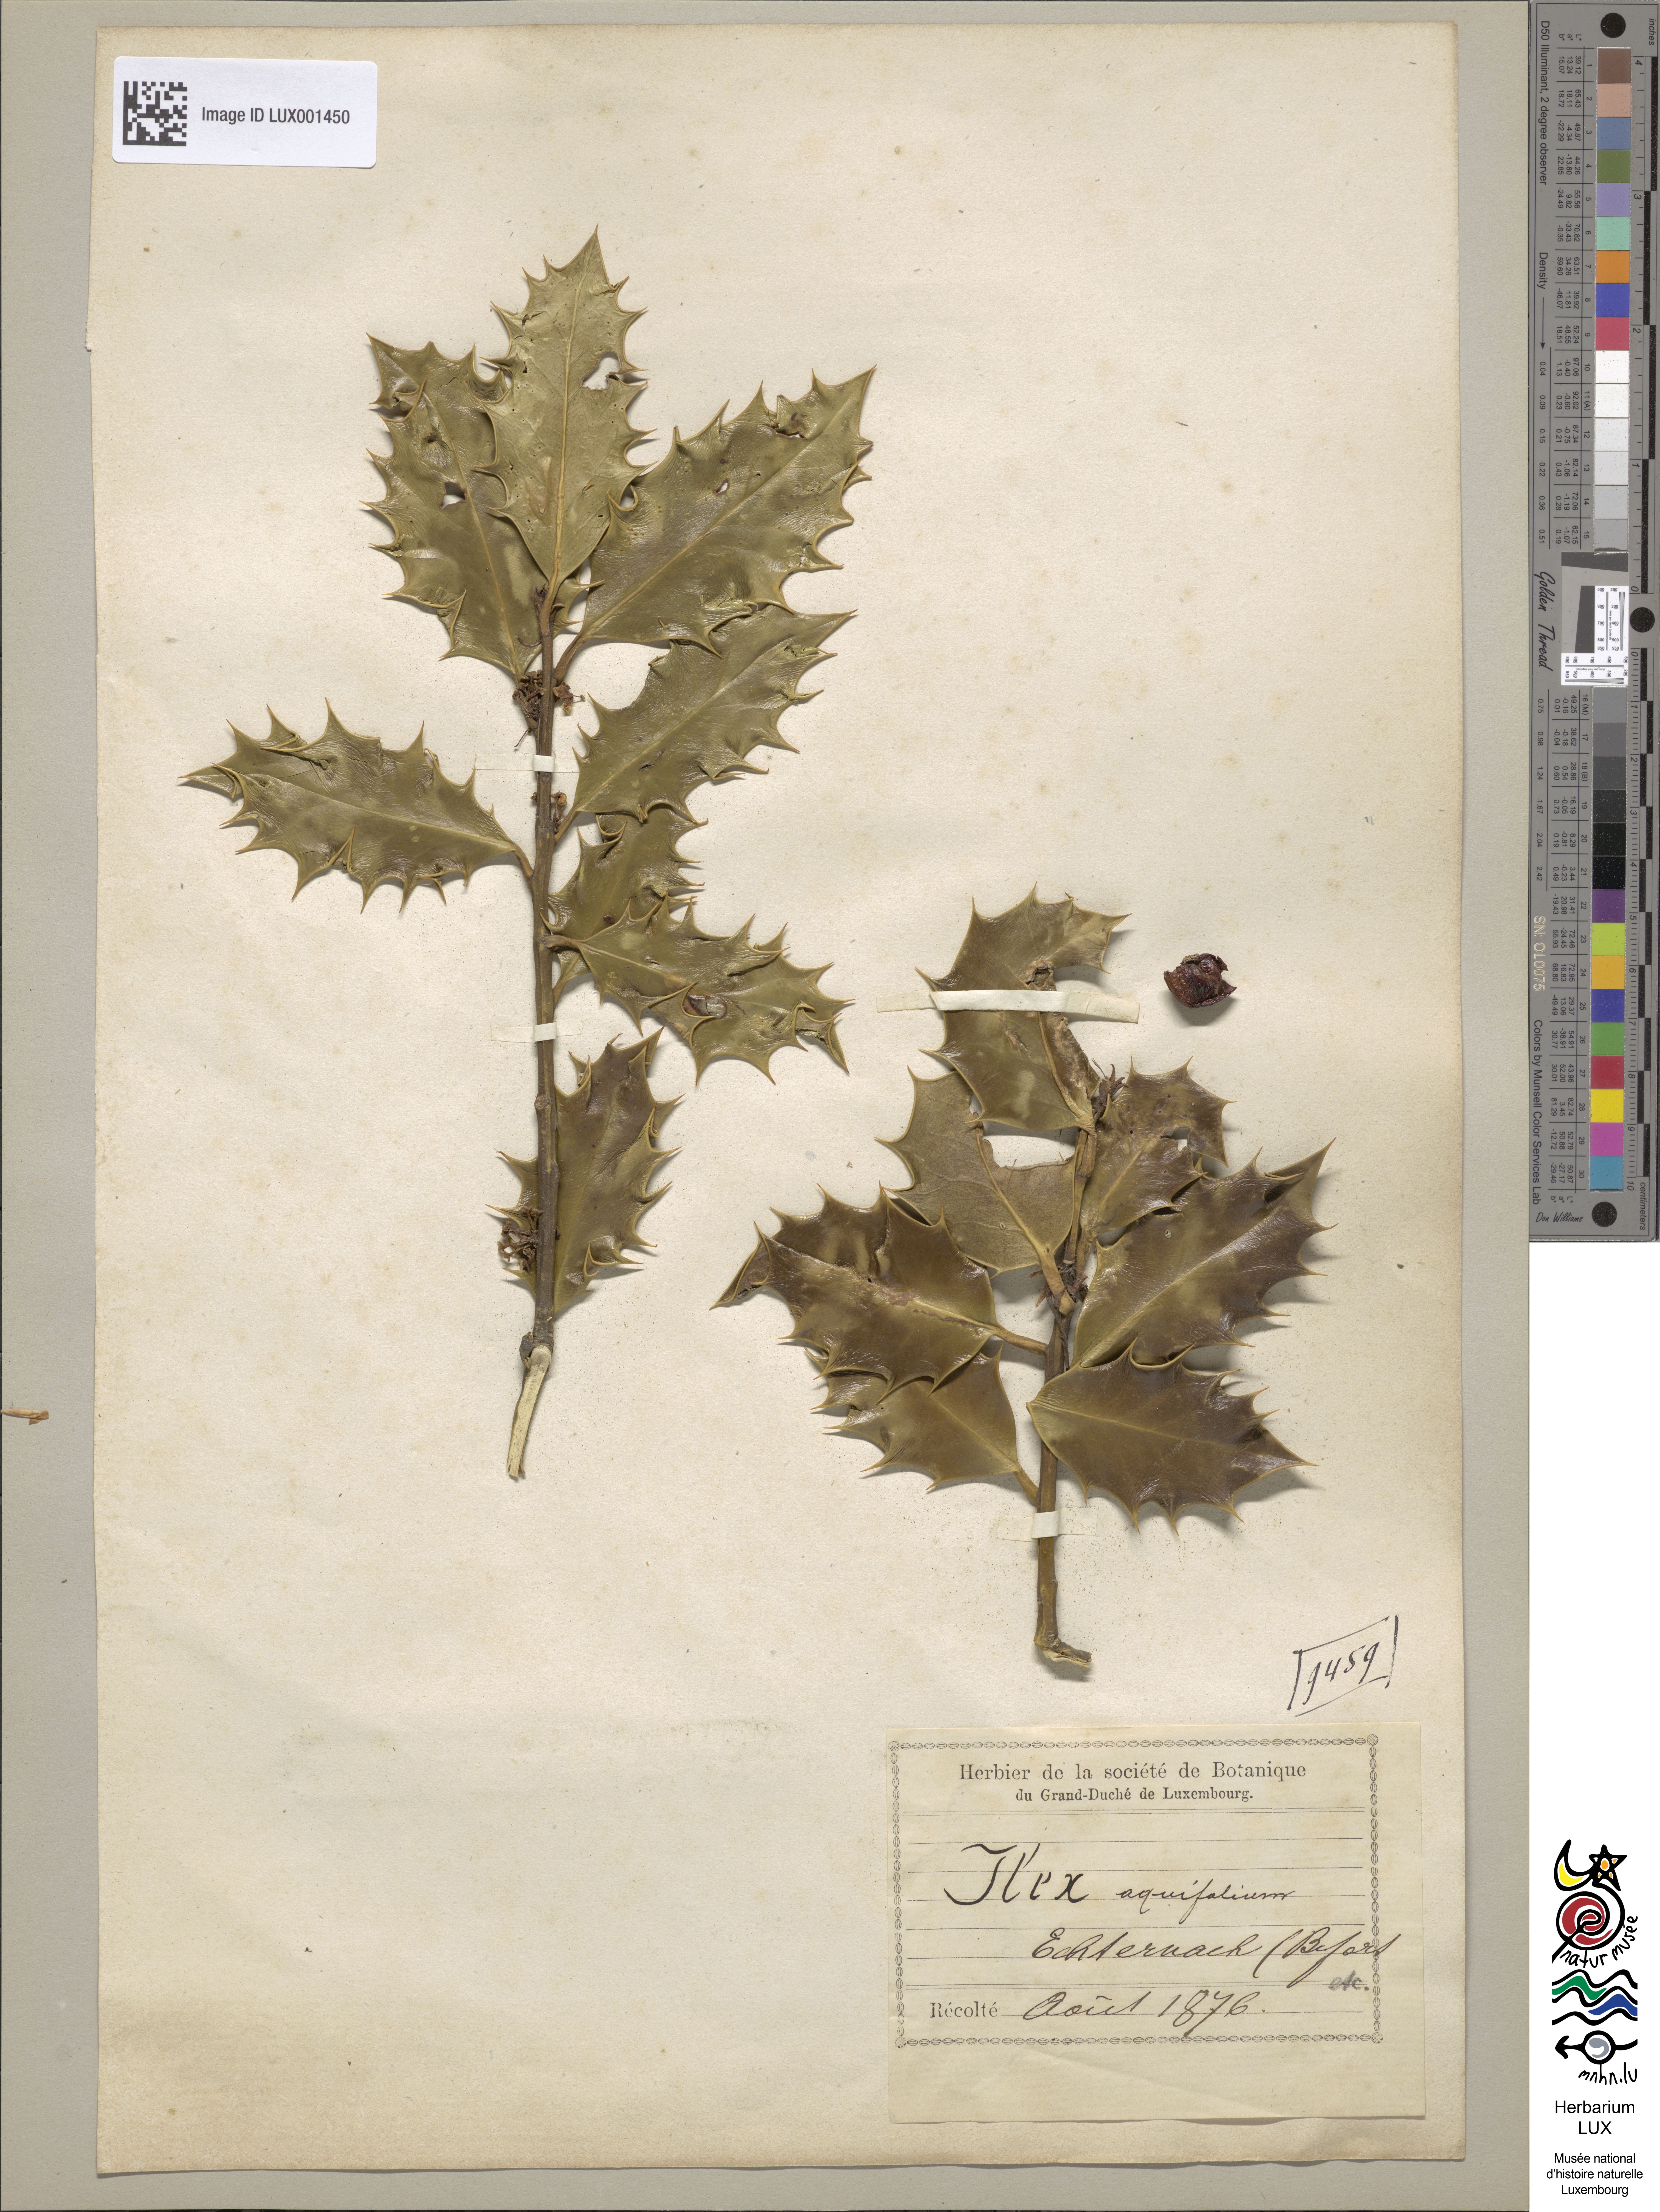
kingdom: Plantae
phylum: Tracheophyta
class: Magnoliopsida
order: Aquifoliales
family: Aquifoliaceae
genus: Ilex
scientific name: Ilex aquifolium
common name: English holly
